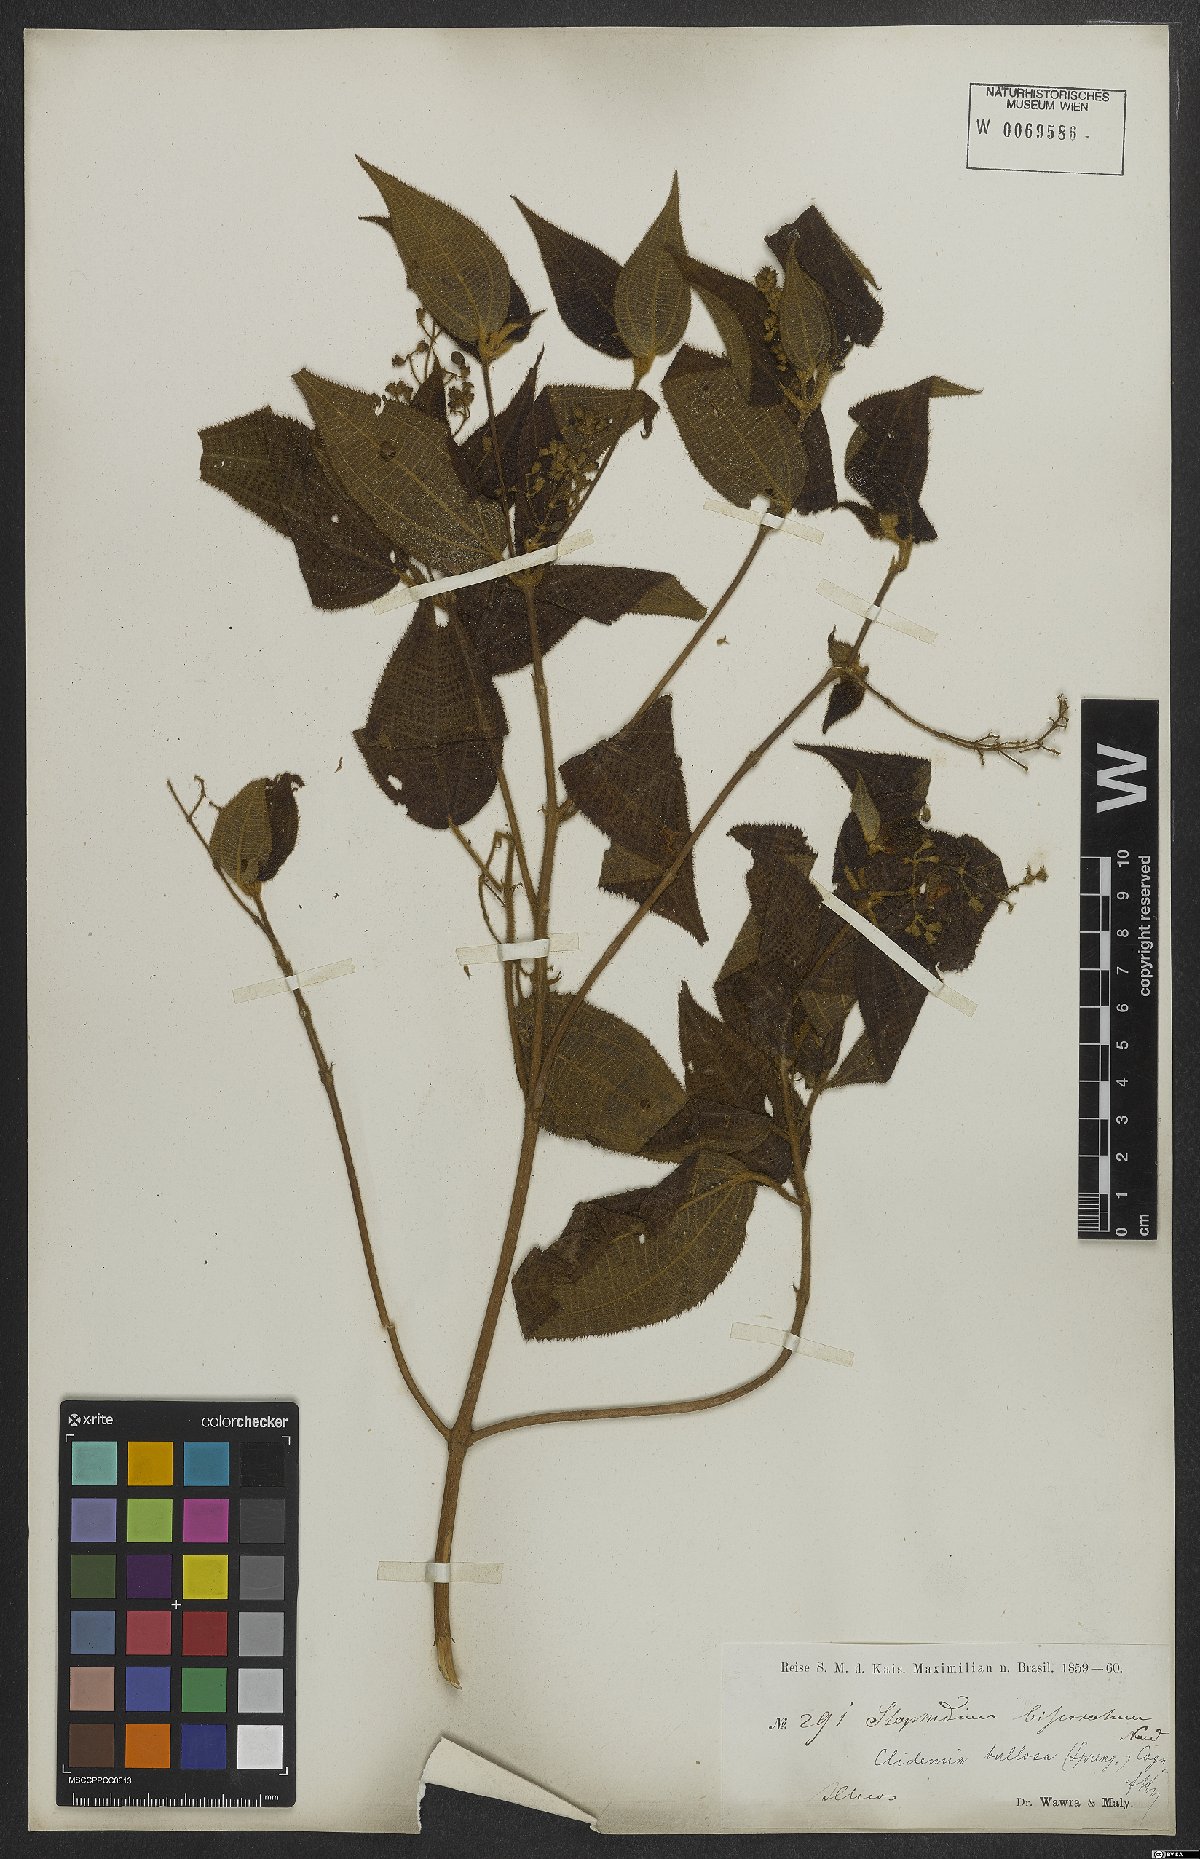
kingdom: Plantae
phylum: Tracheophyta
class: Magnoliopsida
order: Myrtales
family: Melastomataceae
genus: Miconia
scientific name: Miconia bullosa
